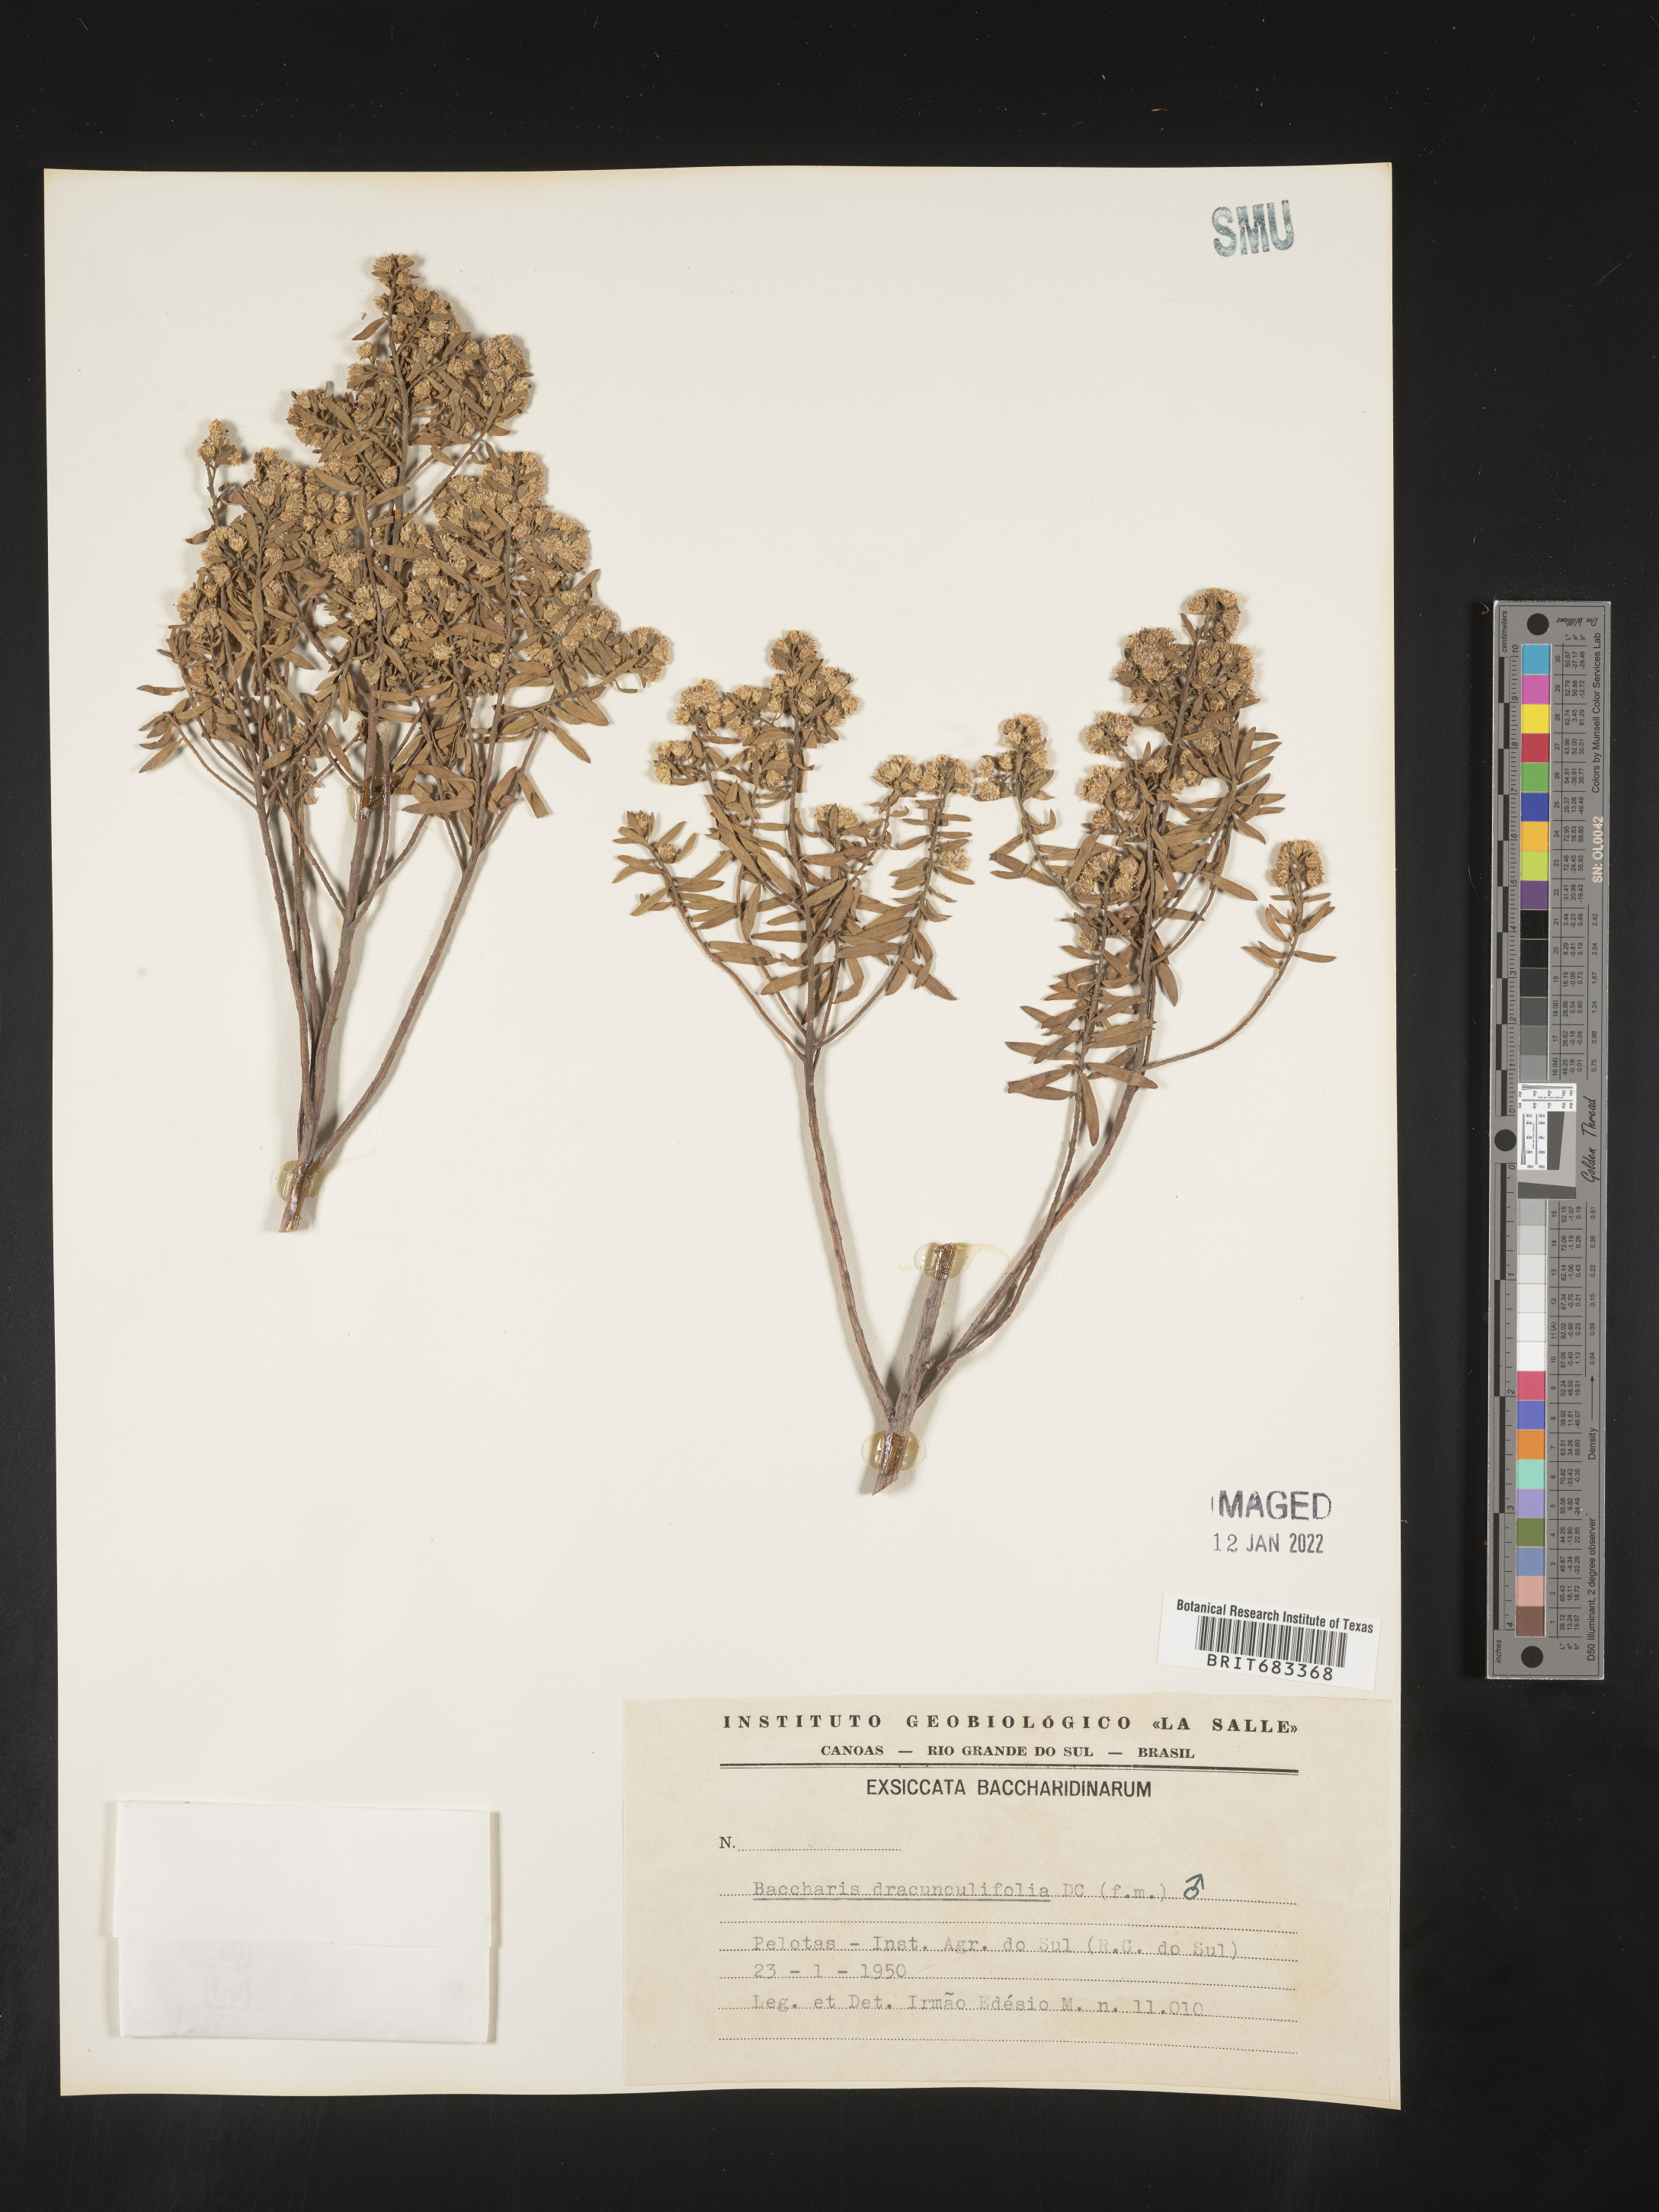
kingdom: Plantae
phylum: Tracheophyta
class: Magnoliopsida
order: Asterales
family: Asteraceae
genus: Baccharis
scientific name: Baccharis
